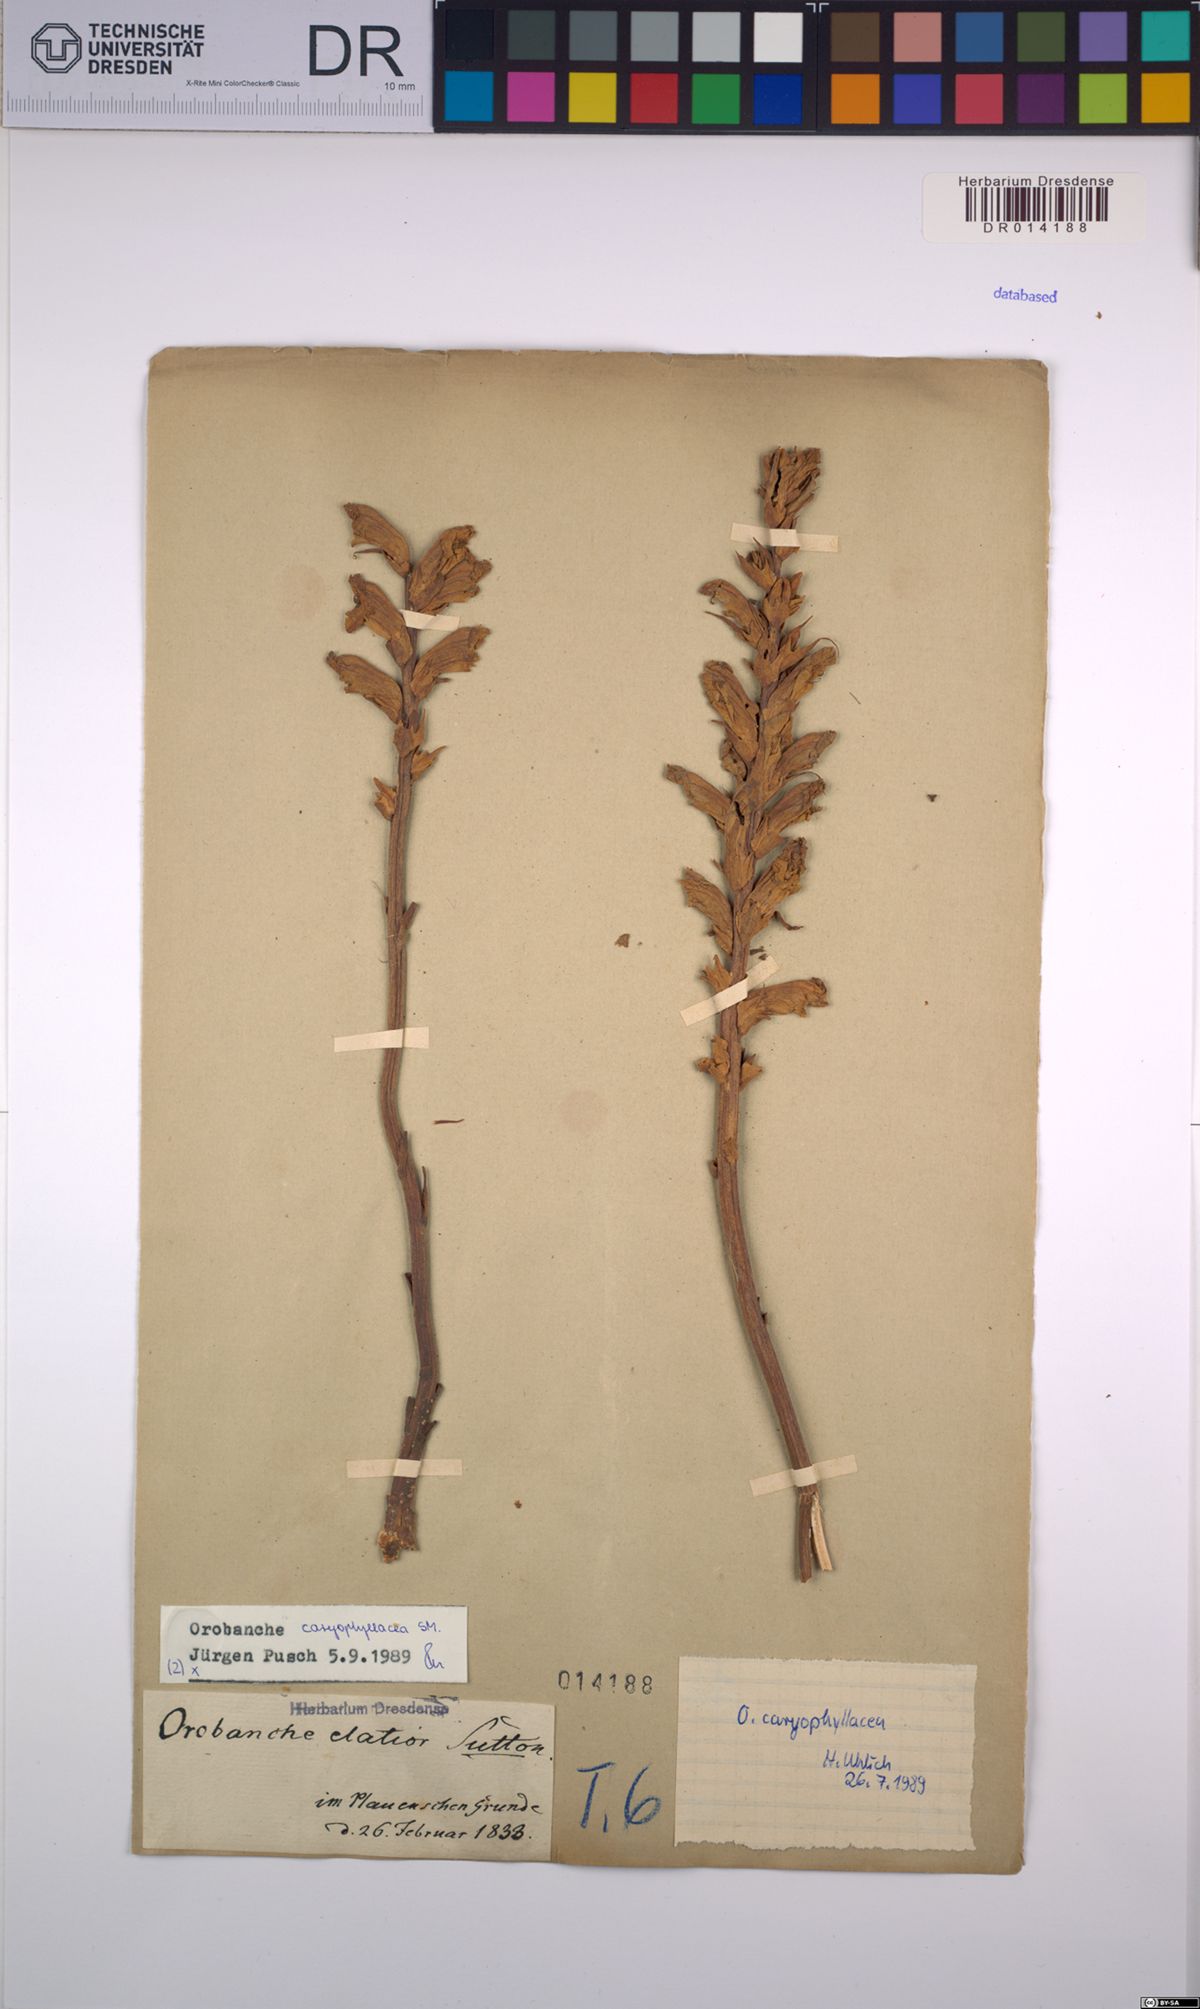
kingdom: Plantae
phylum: Tracheophyta
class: Magnoliopsida
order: Lamiales
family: Orobanchaceae
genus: Orobanche
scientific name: Orobanche caryophyllacea
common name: Bedstraw broomrape
